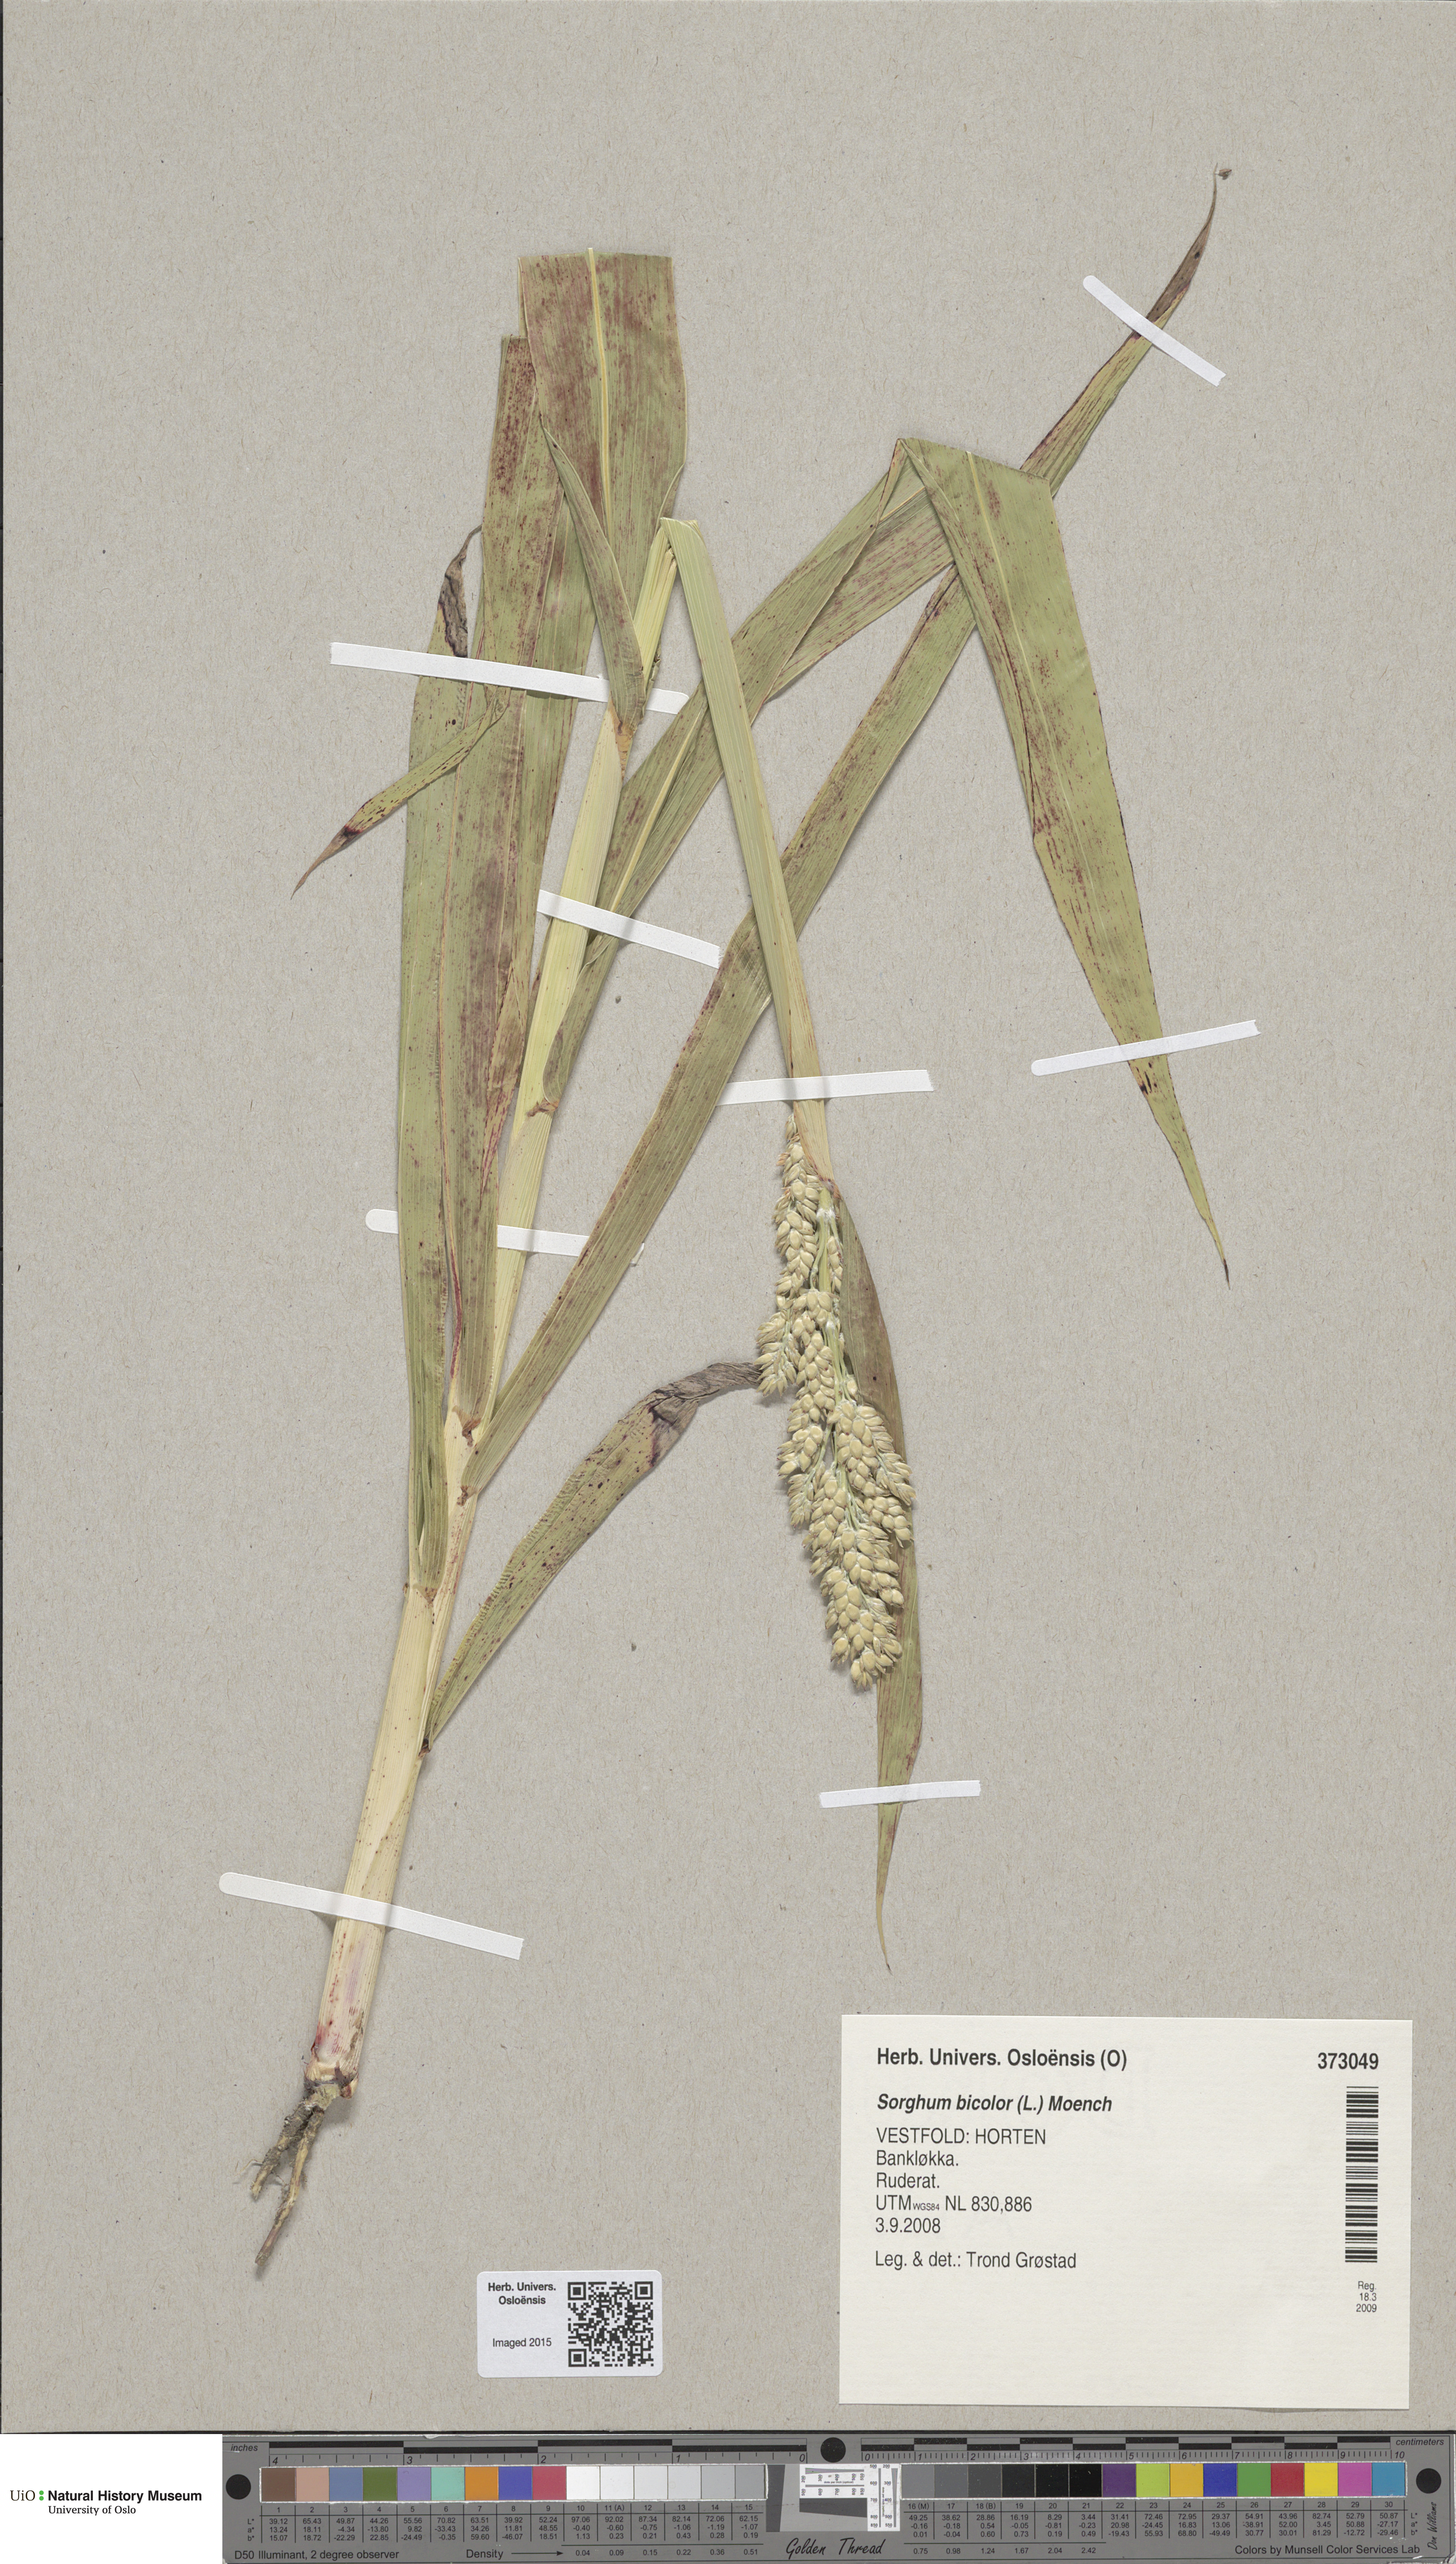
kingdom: Plantae
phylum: Tracheophyta
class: Liliopsida
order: Poales
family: Poaceae
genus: Sorghum
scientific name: Sorghum bicolor
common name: Sorghum
